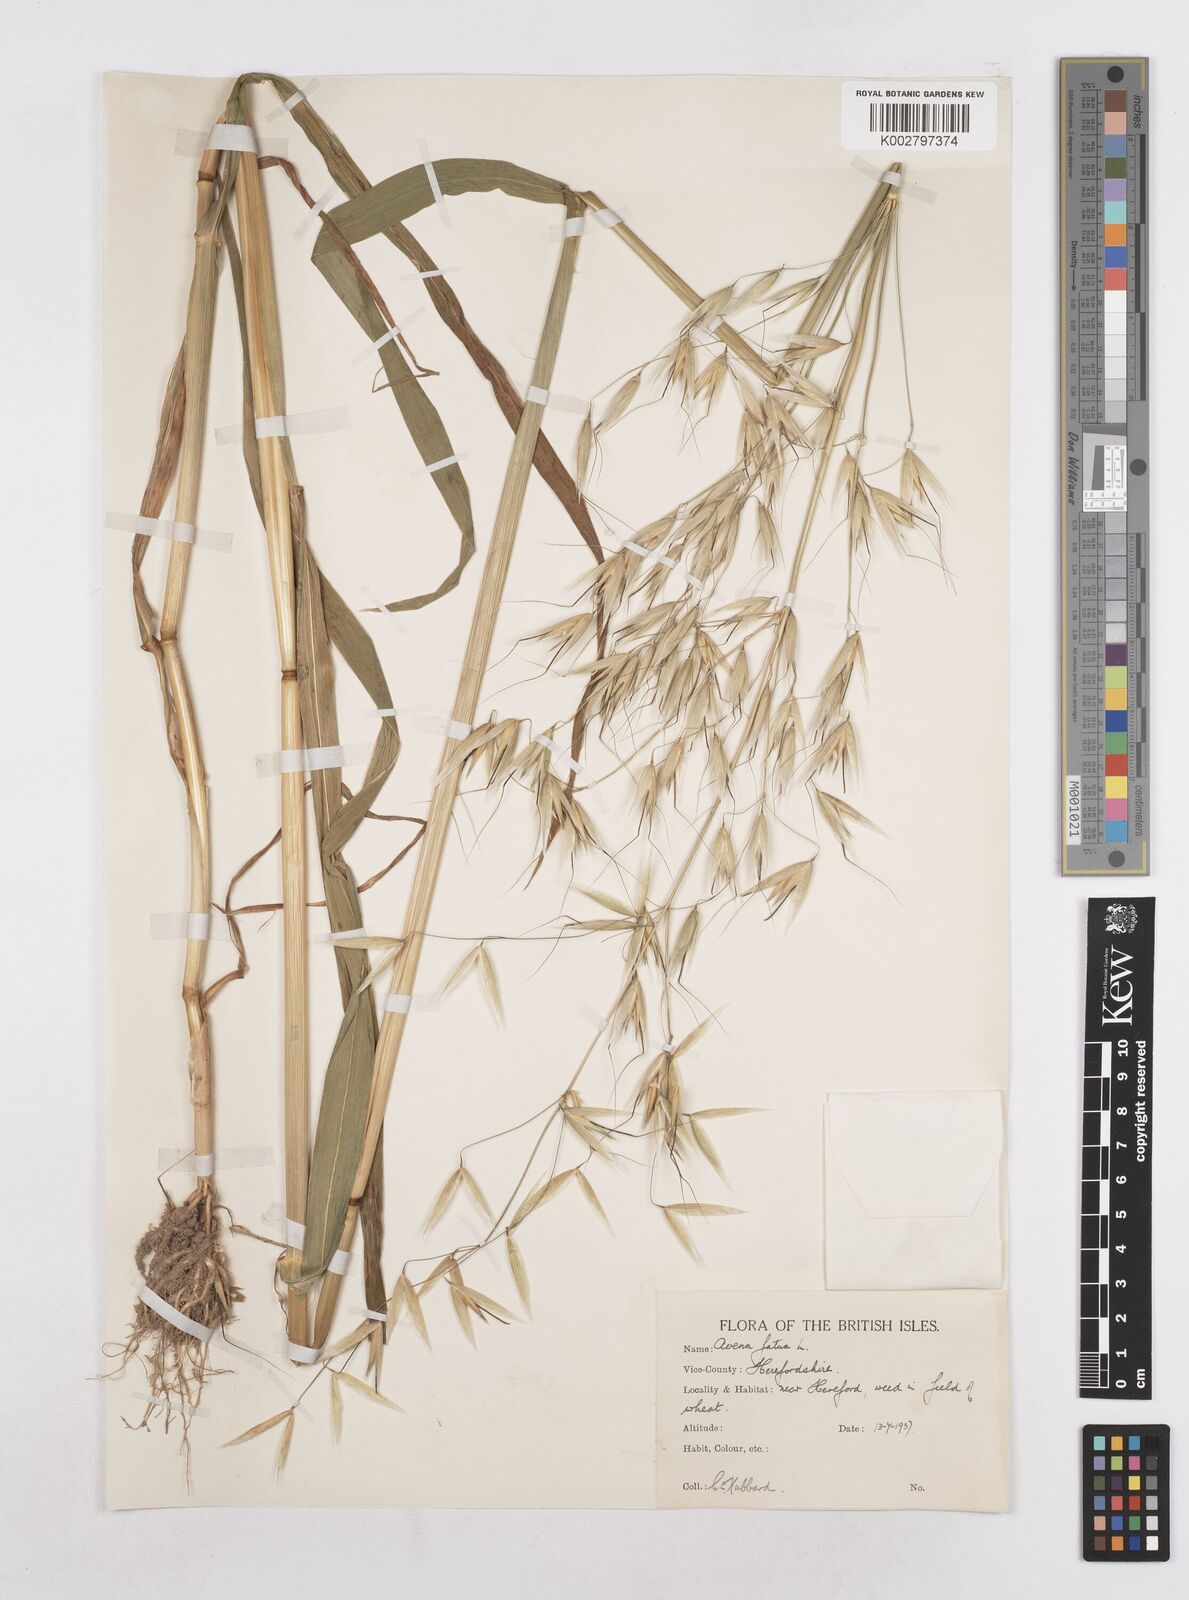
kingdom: Plantae
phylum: Tracheophyta
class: Liliopsida
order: Poales
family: Poaceae
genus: Avena
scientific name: Avena fatua
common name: Wild oat
